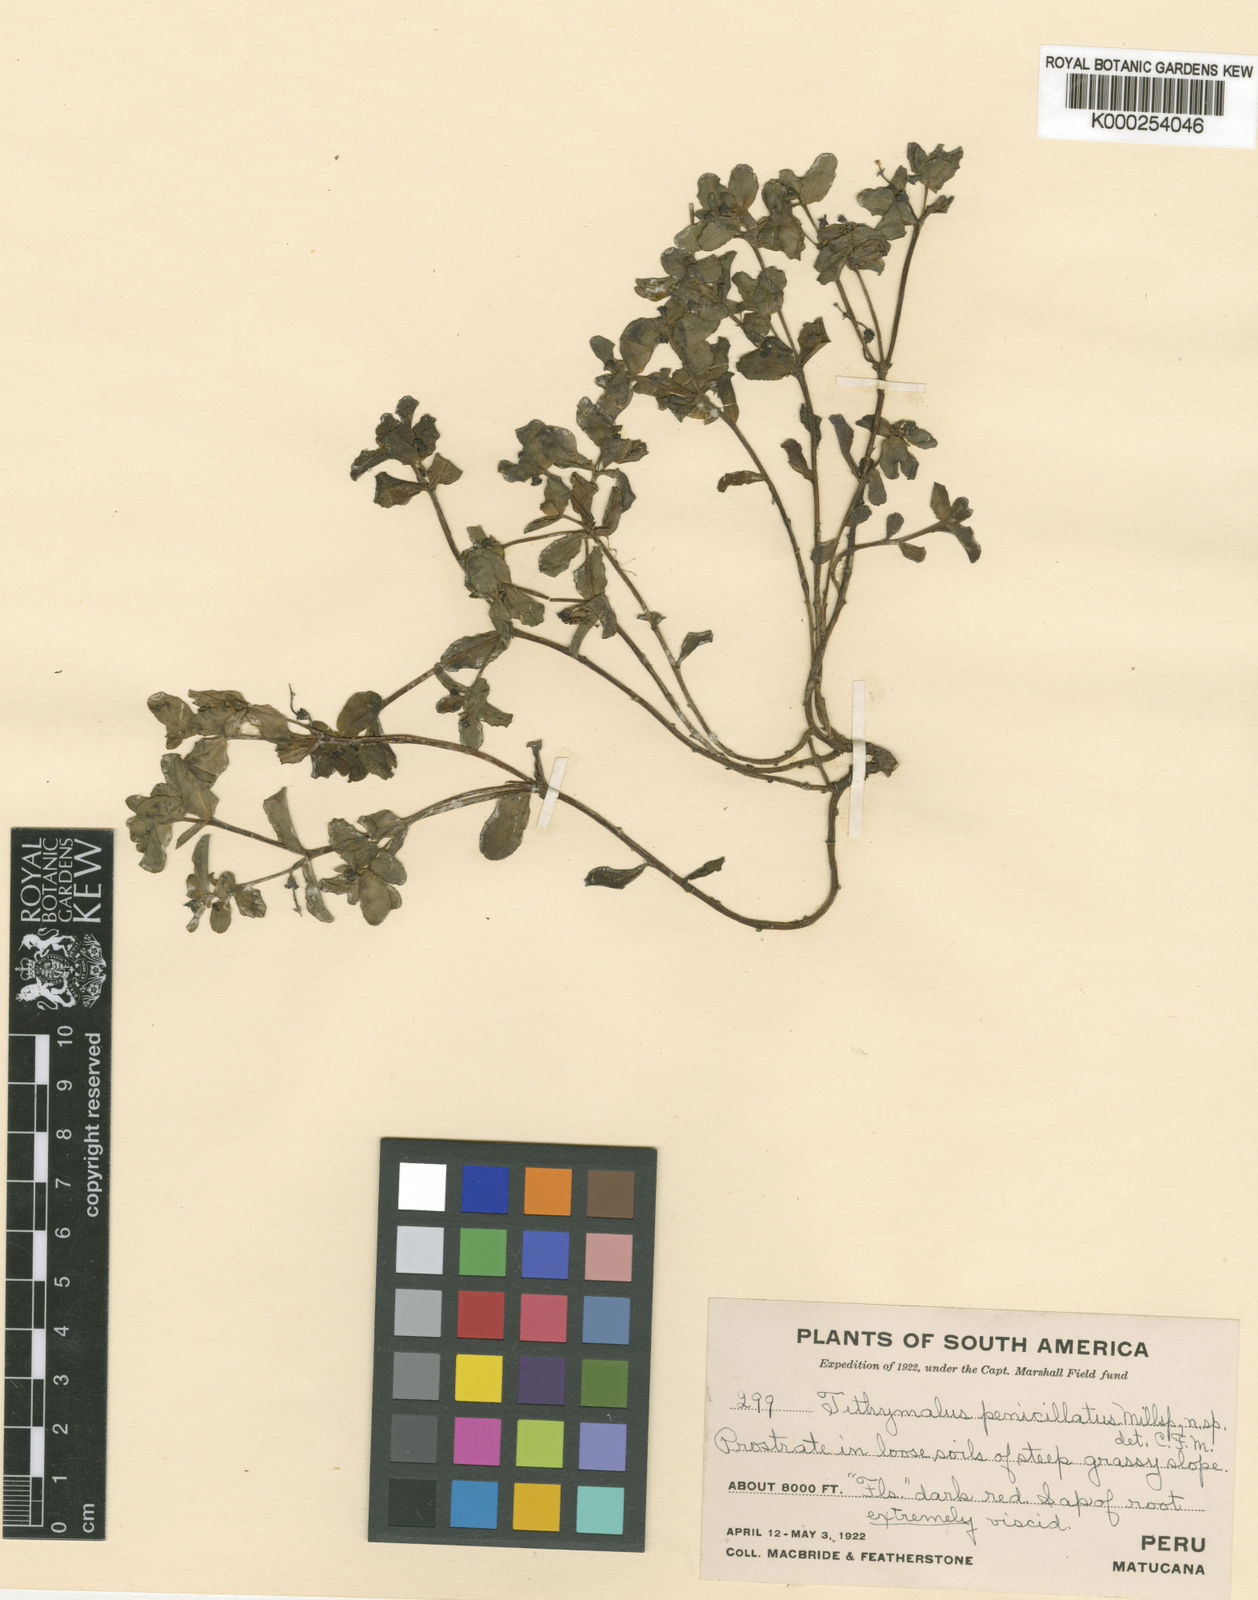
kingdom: Plantae
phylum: Tracheophyta
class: Magnoliopsida
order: Malpighiales
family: Euphorbiaceae
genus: Euphorbia
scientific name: Euphorbia guachanca
